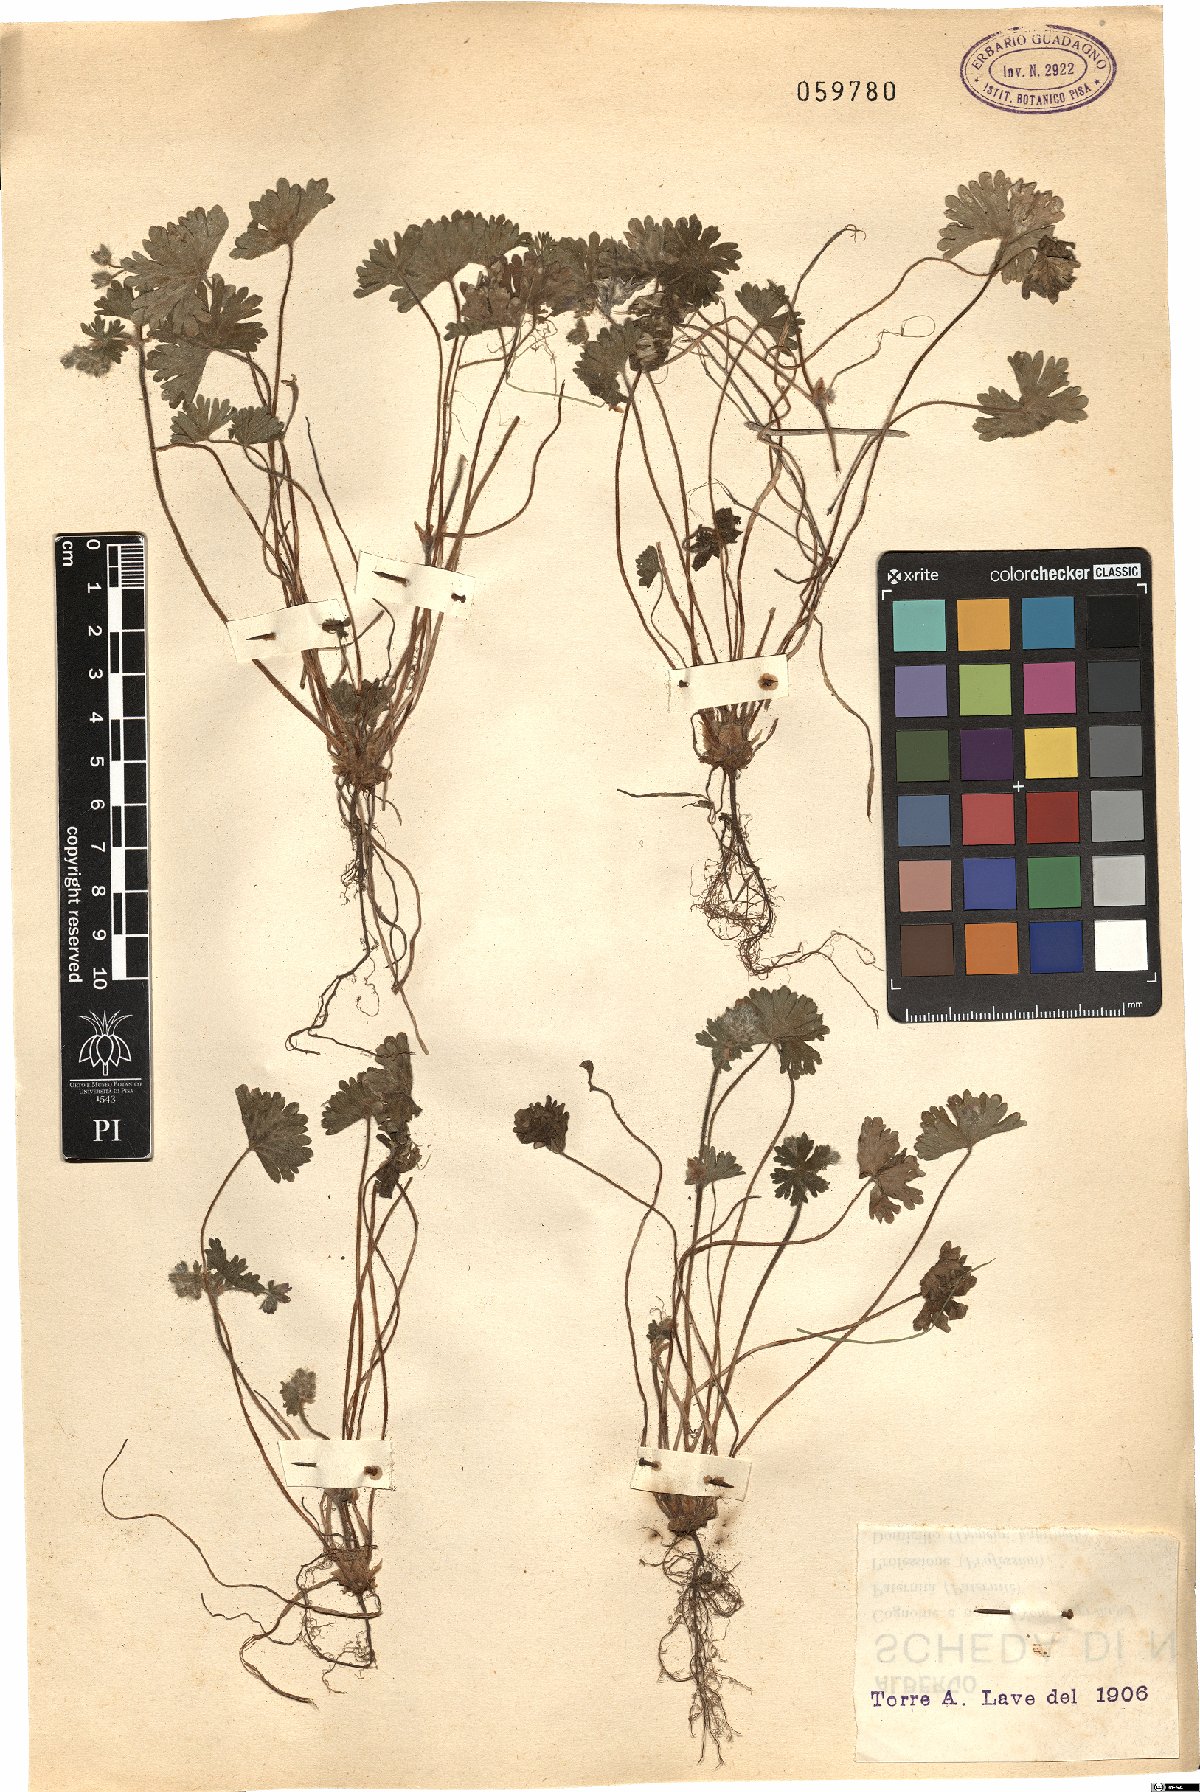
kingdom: Plantae
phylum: Tracheophyta
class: Magnoliopsida
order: Geraniales
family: Geraniaceae
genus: Geranium
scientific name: Geranium
